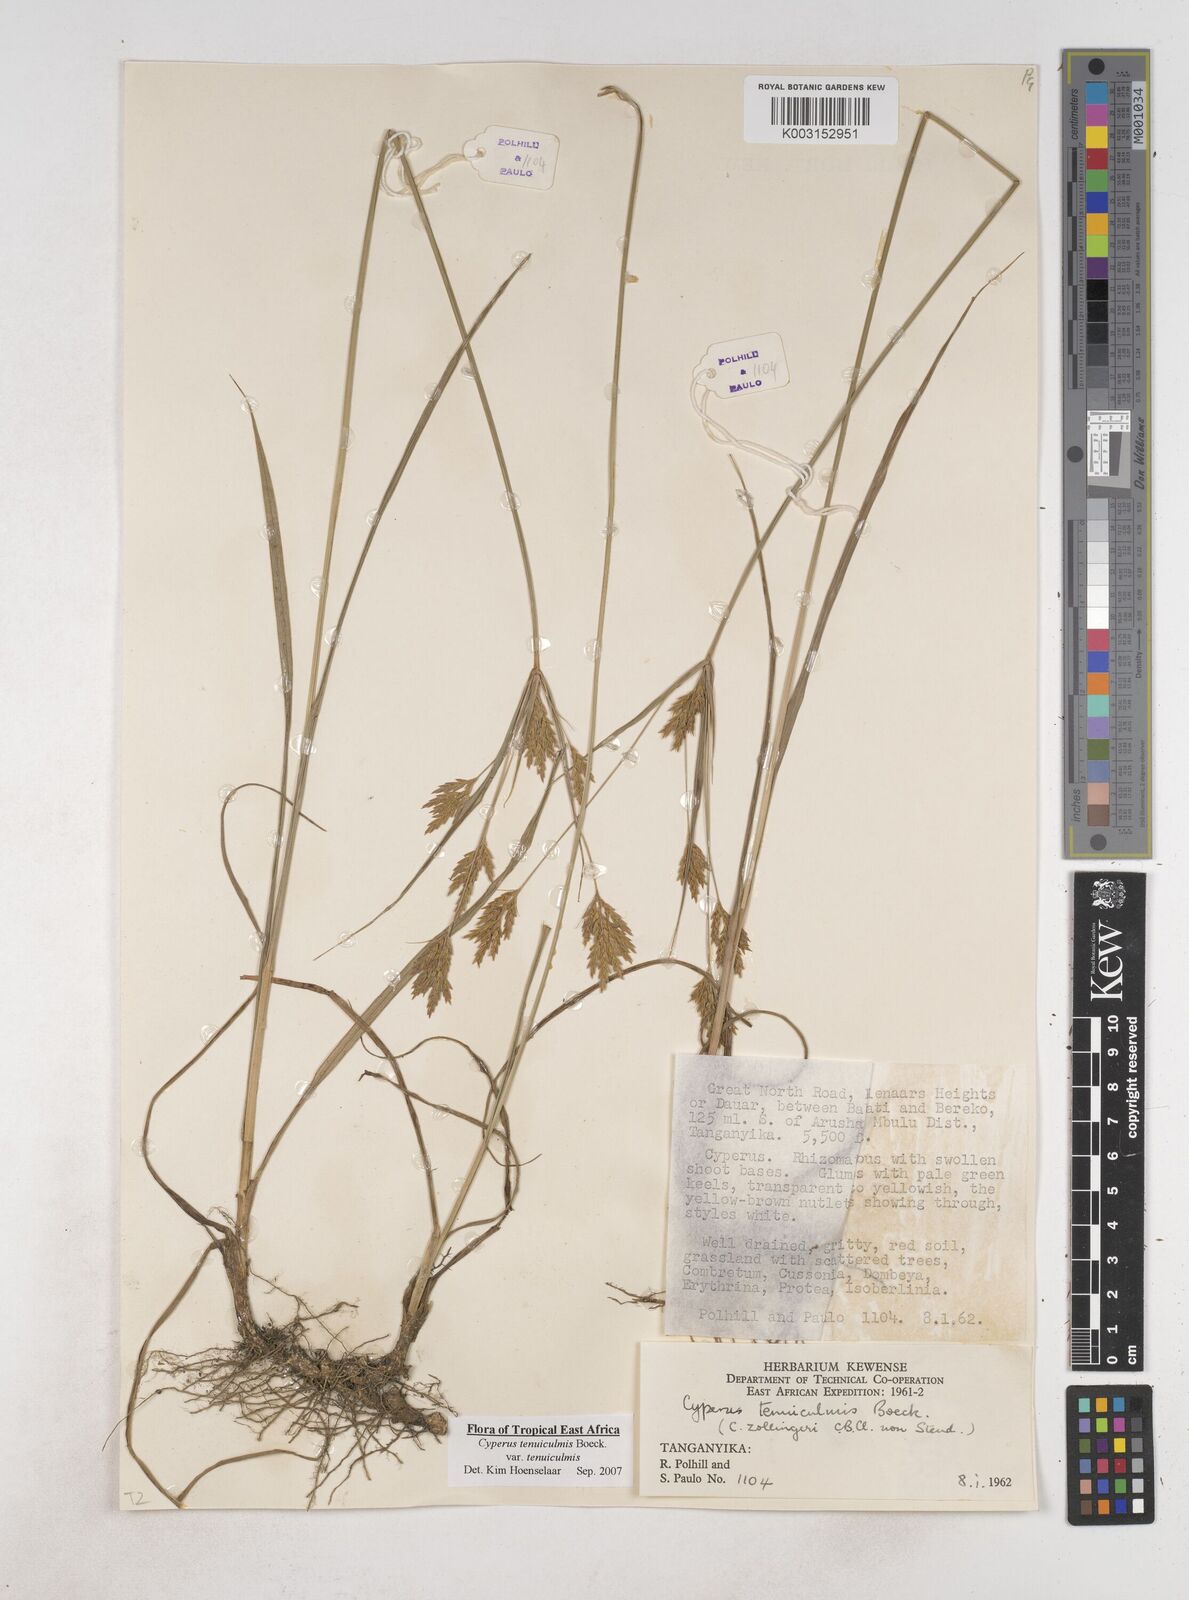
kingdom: Plantae
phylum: Tracheophyta
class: Liliopsida
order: Poales
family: Cyperaceae
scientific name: Cyperaceae
